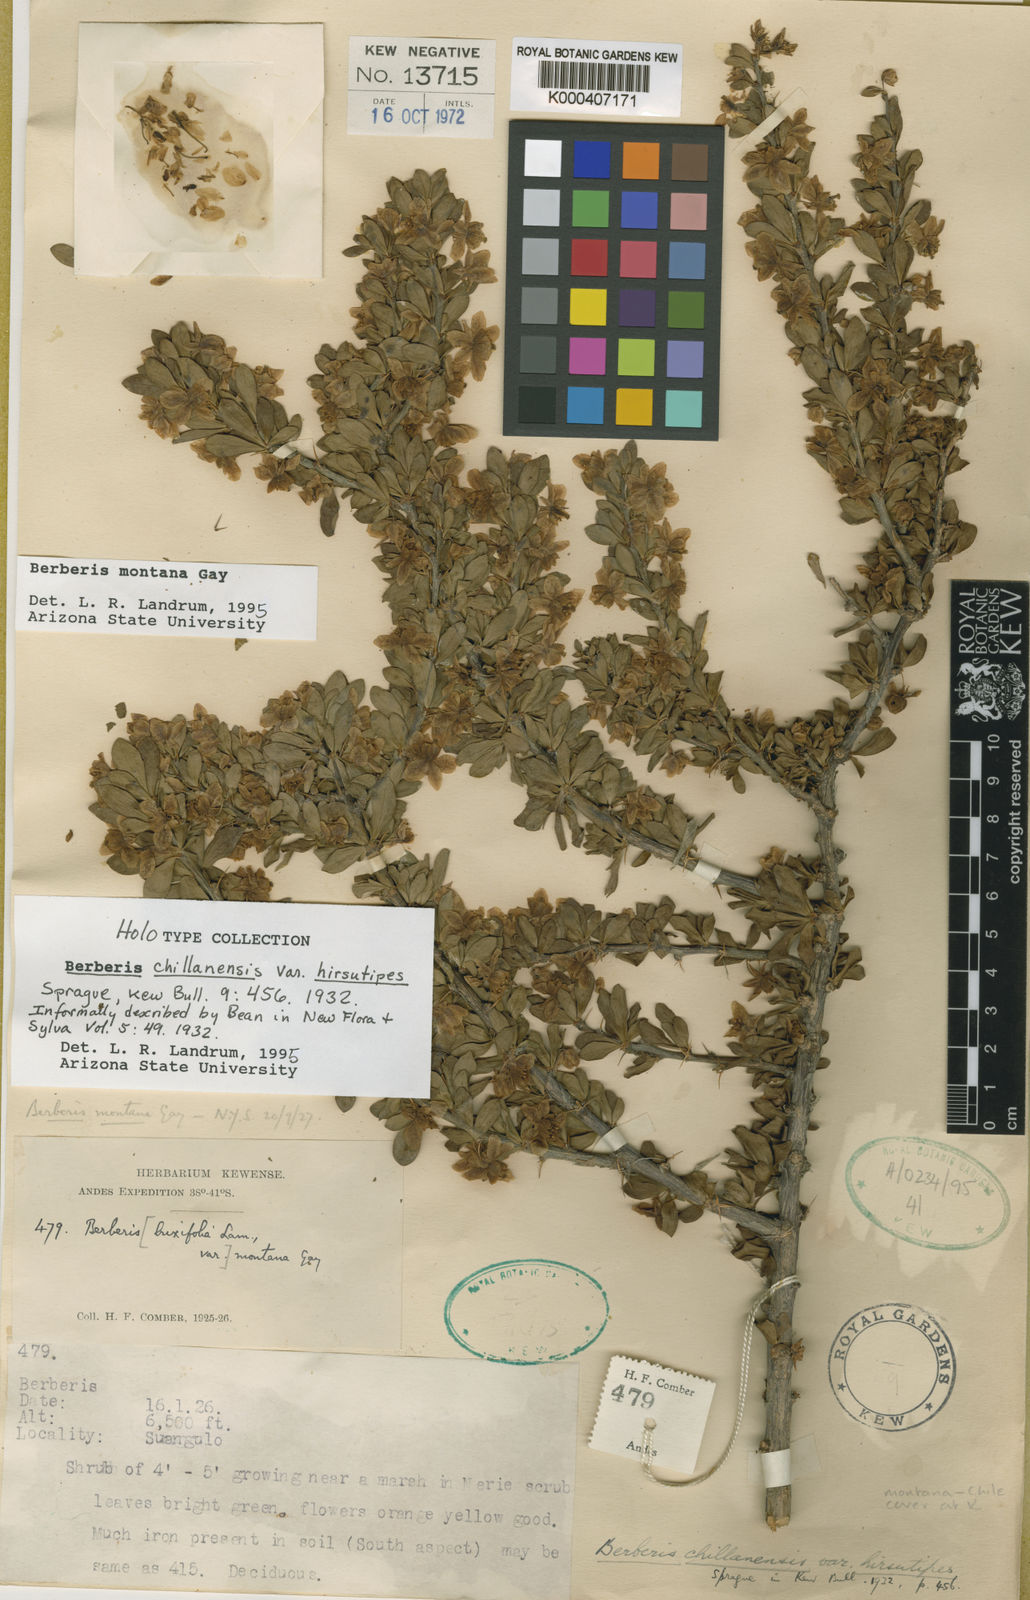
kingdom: Plantae
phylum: Tracheophyta
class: Magnoliopsida
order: Ranunculales
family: Berberidaceae
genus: Berberis
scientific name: Berberis montana
